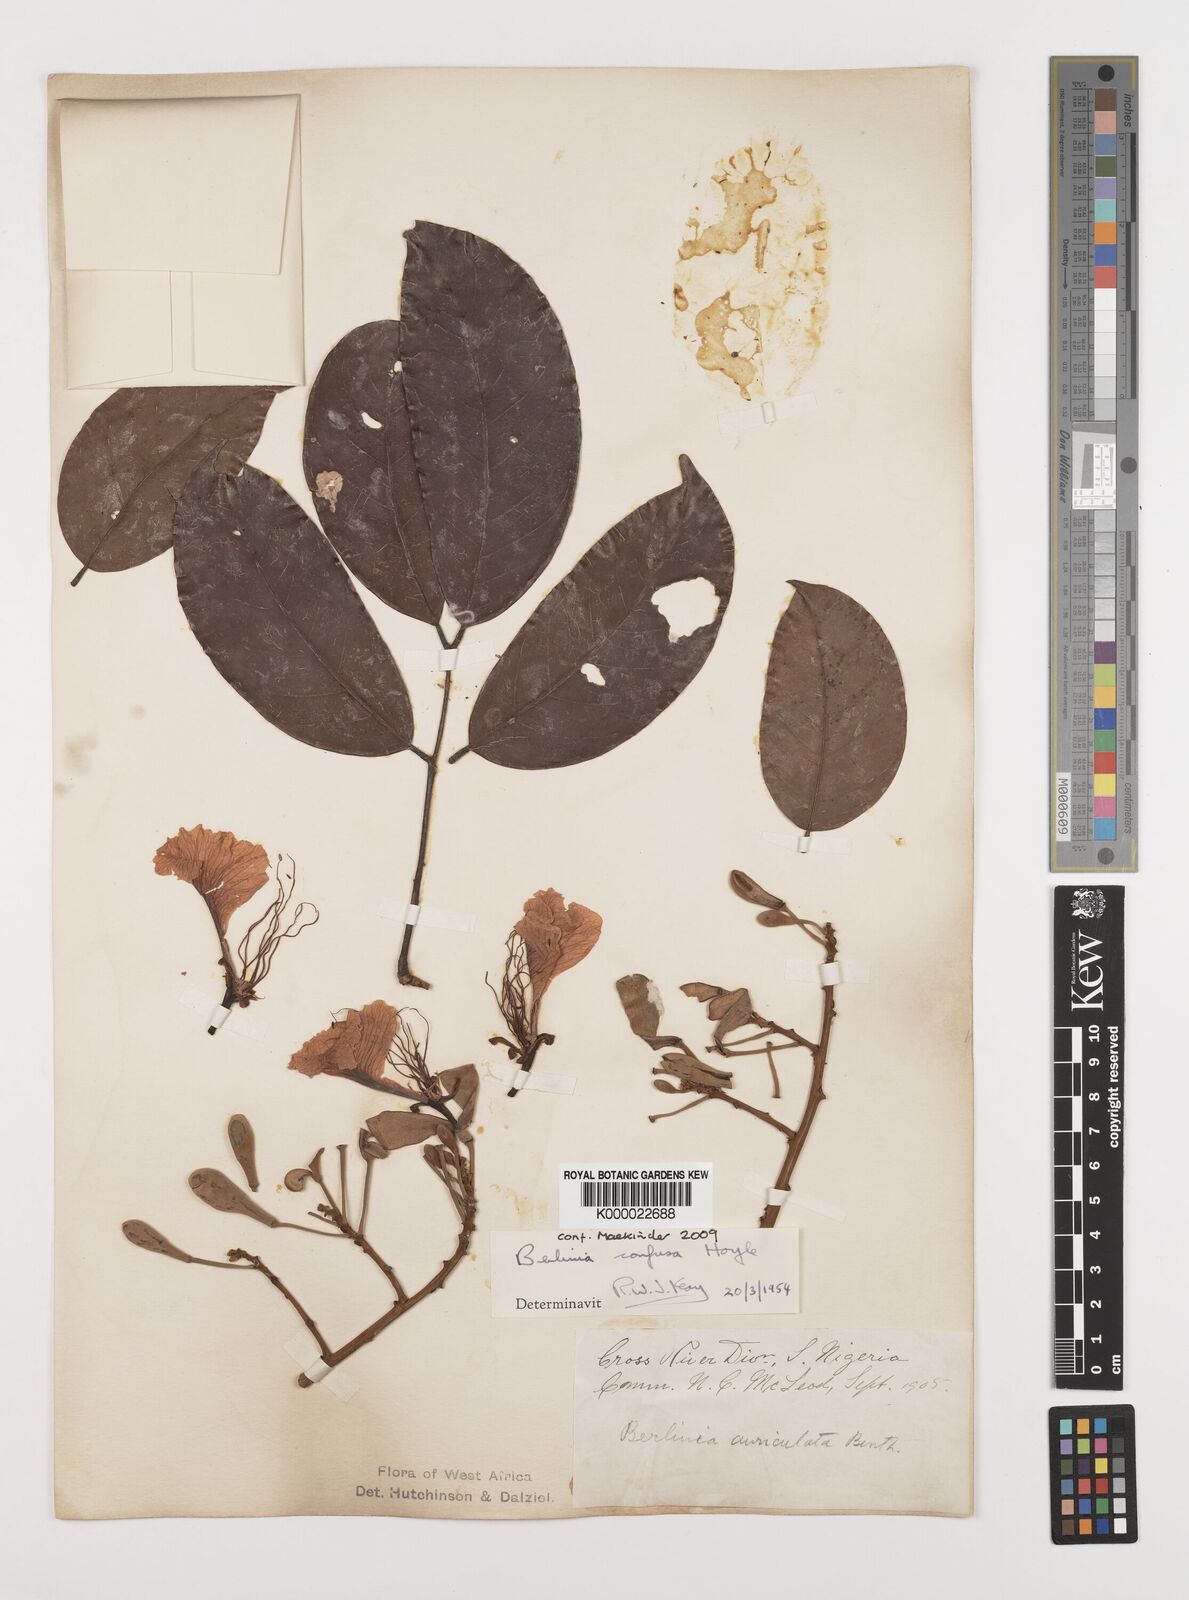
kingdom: Plantae
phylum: Tracheophyta
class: Magnoliopsida
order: Fabales
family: Fabaceae
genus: Berlinia
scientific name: Berlinia confusa
